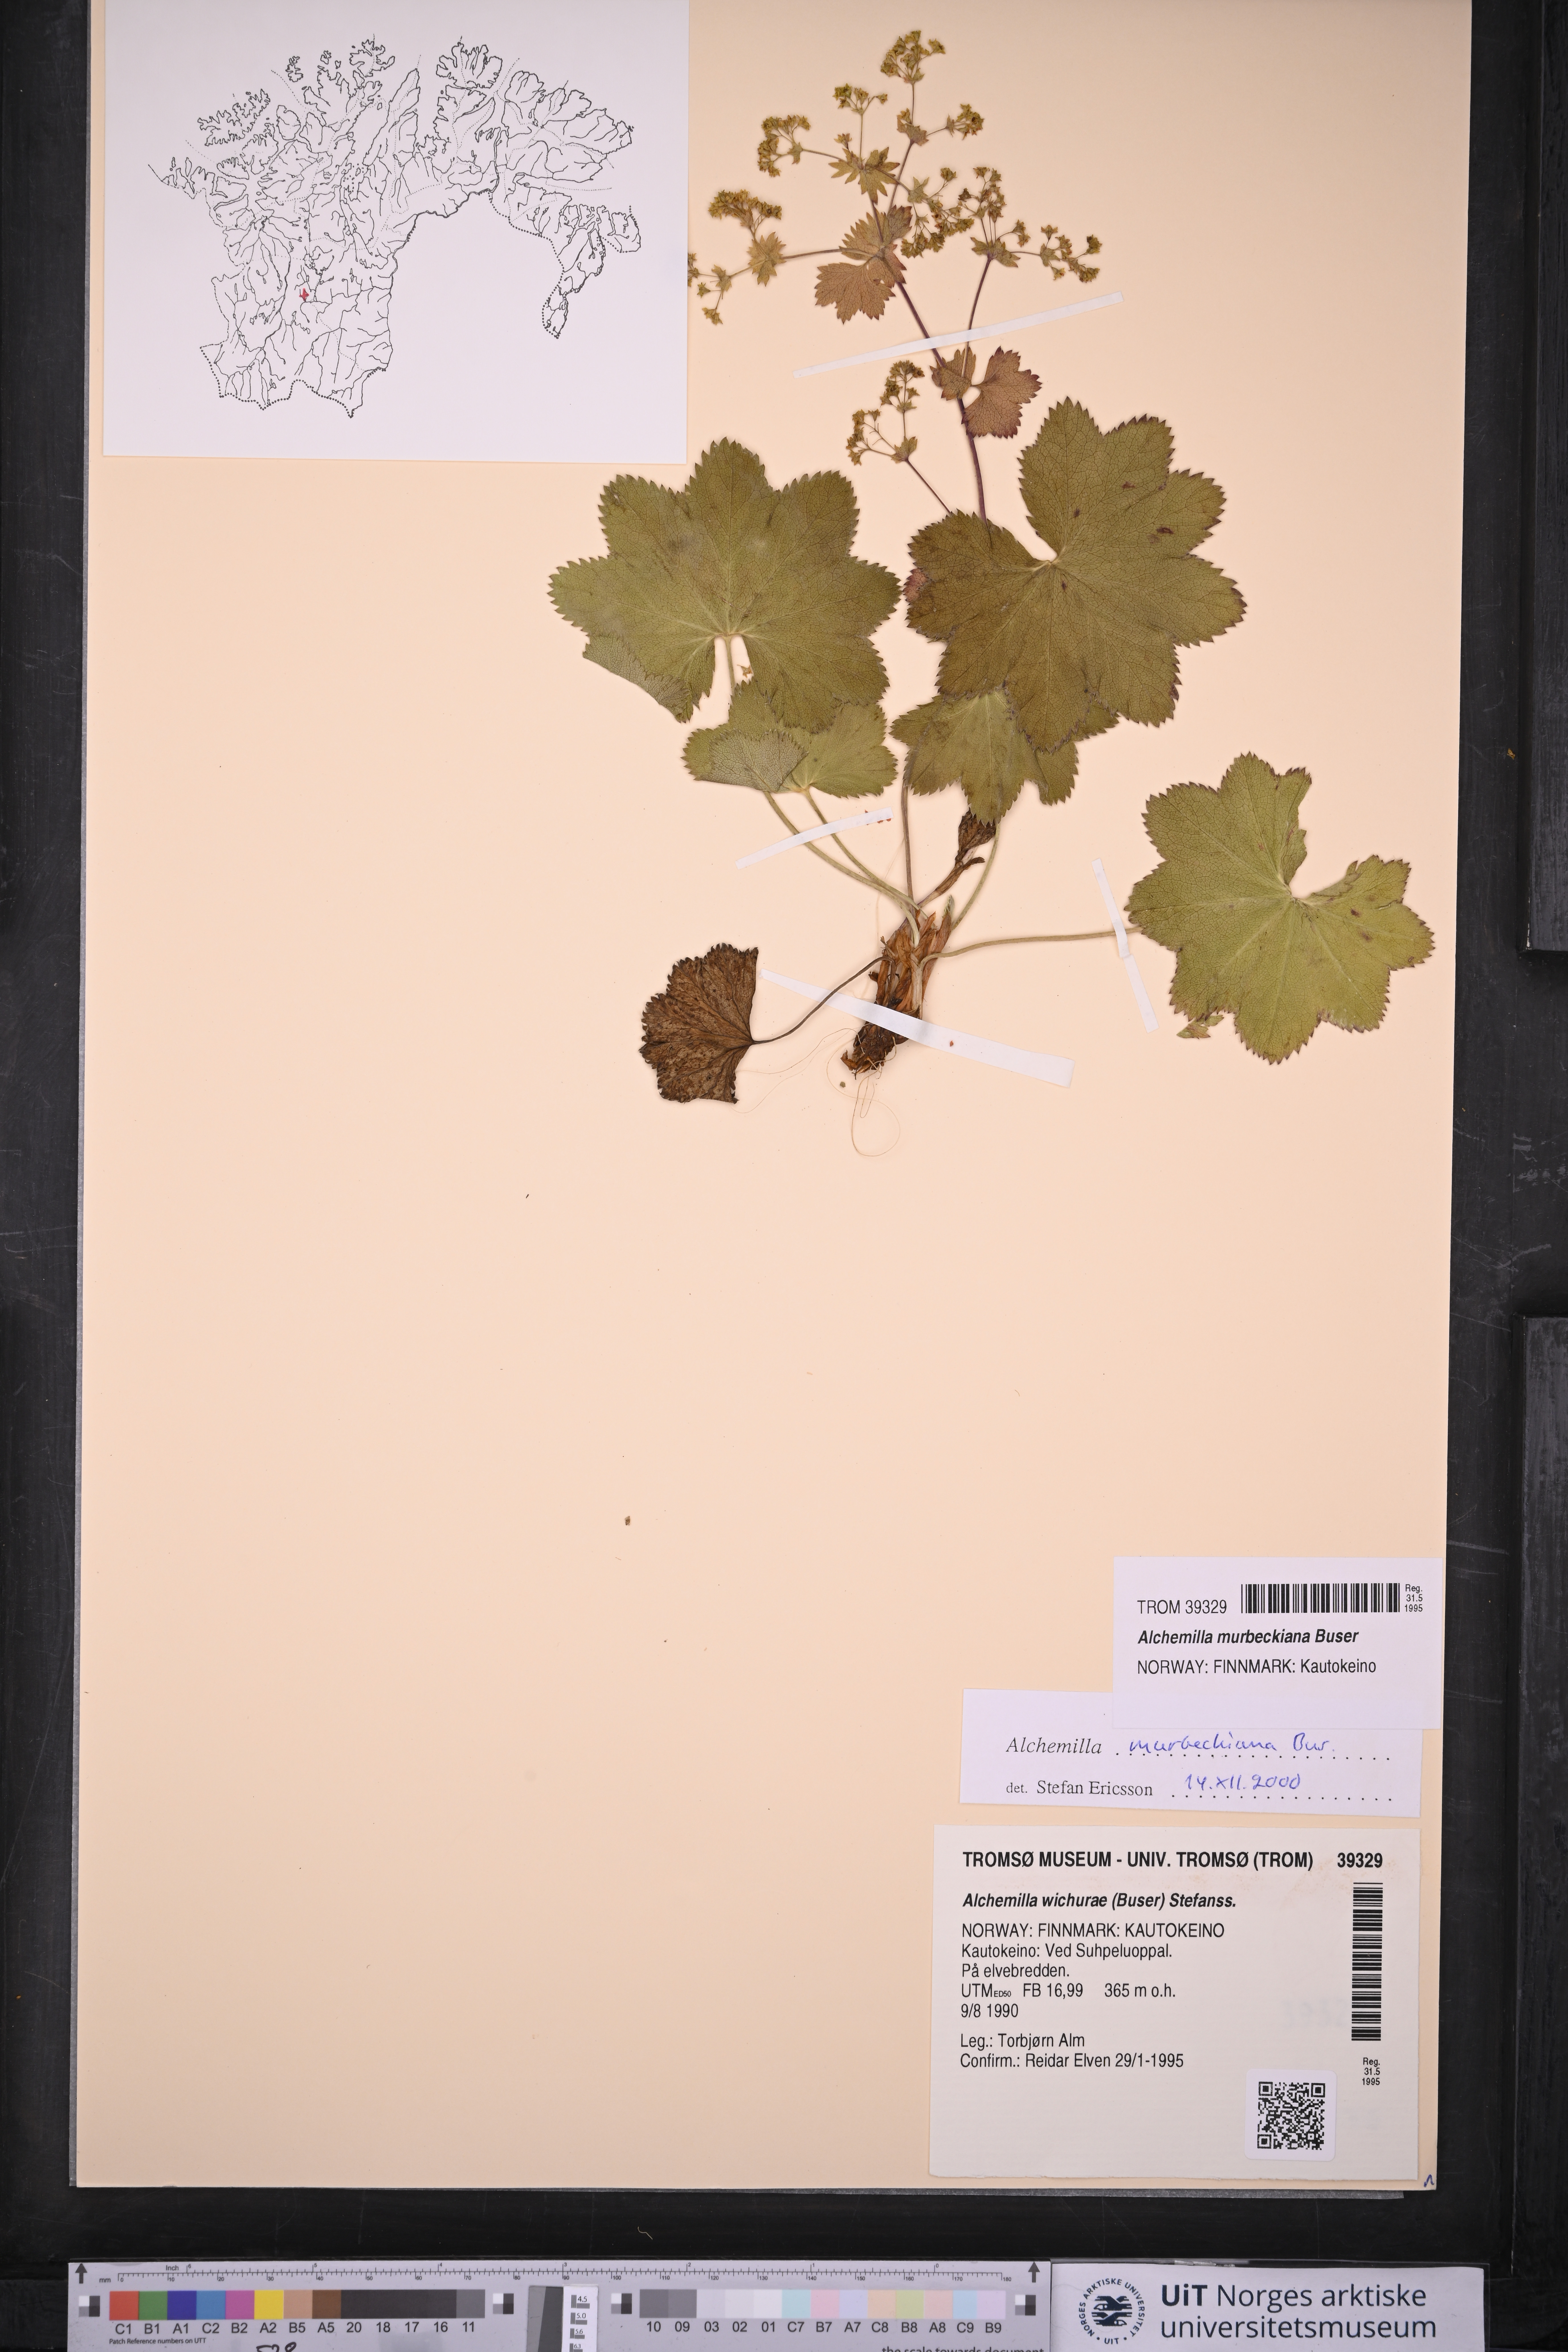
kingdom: Plantae
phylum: Tracheophyta
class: Magnoliopsida
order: Rosales
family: Rosaceae
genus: Alchemilla
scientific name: Alchemilla murbeckiana
